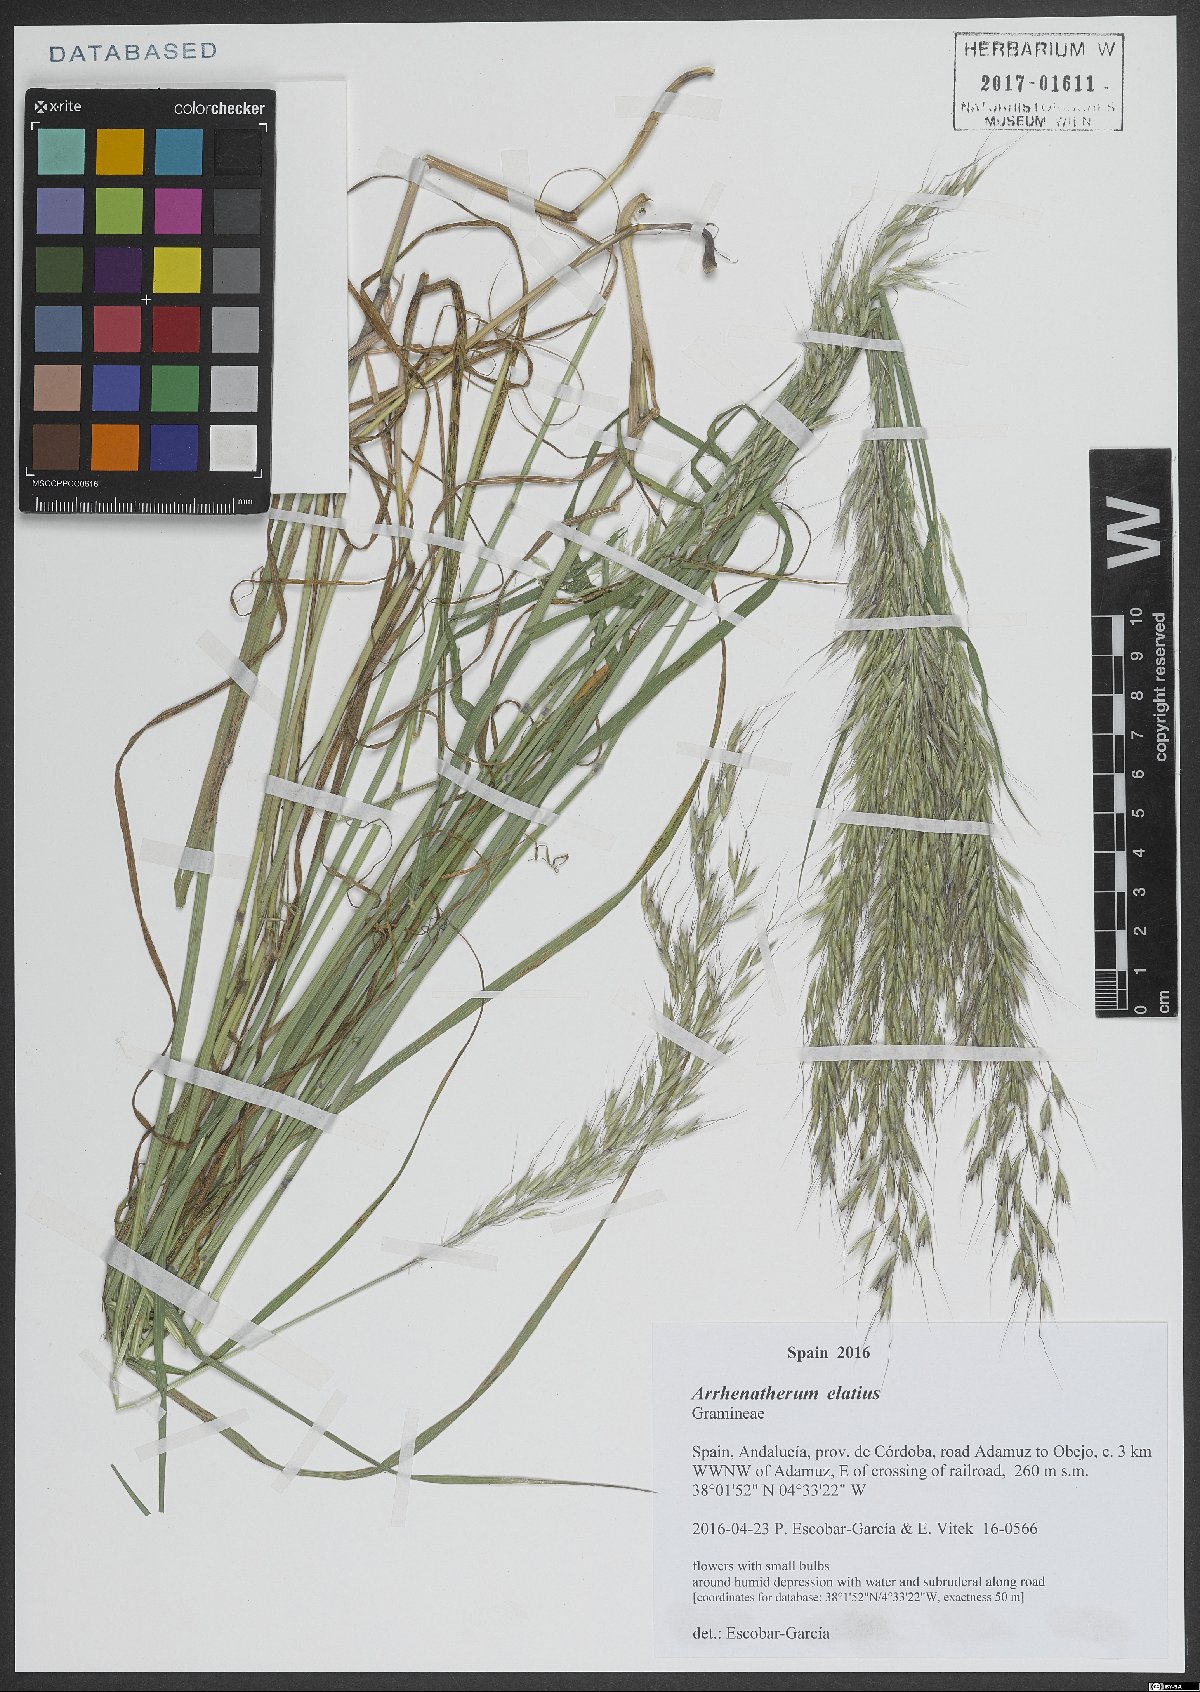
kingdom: Plantae
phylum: Tracheophyta
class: Liliopsida
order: Poales
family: Poaceae
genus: Arrhenatherum
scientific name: Arrhenatherum elatius
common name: Tall oatgrass
